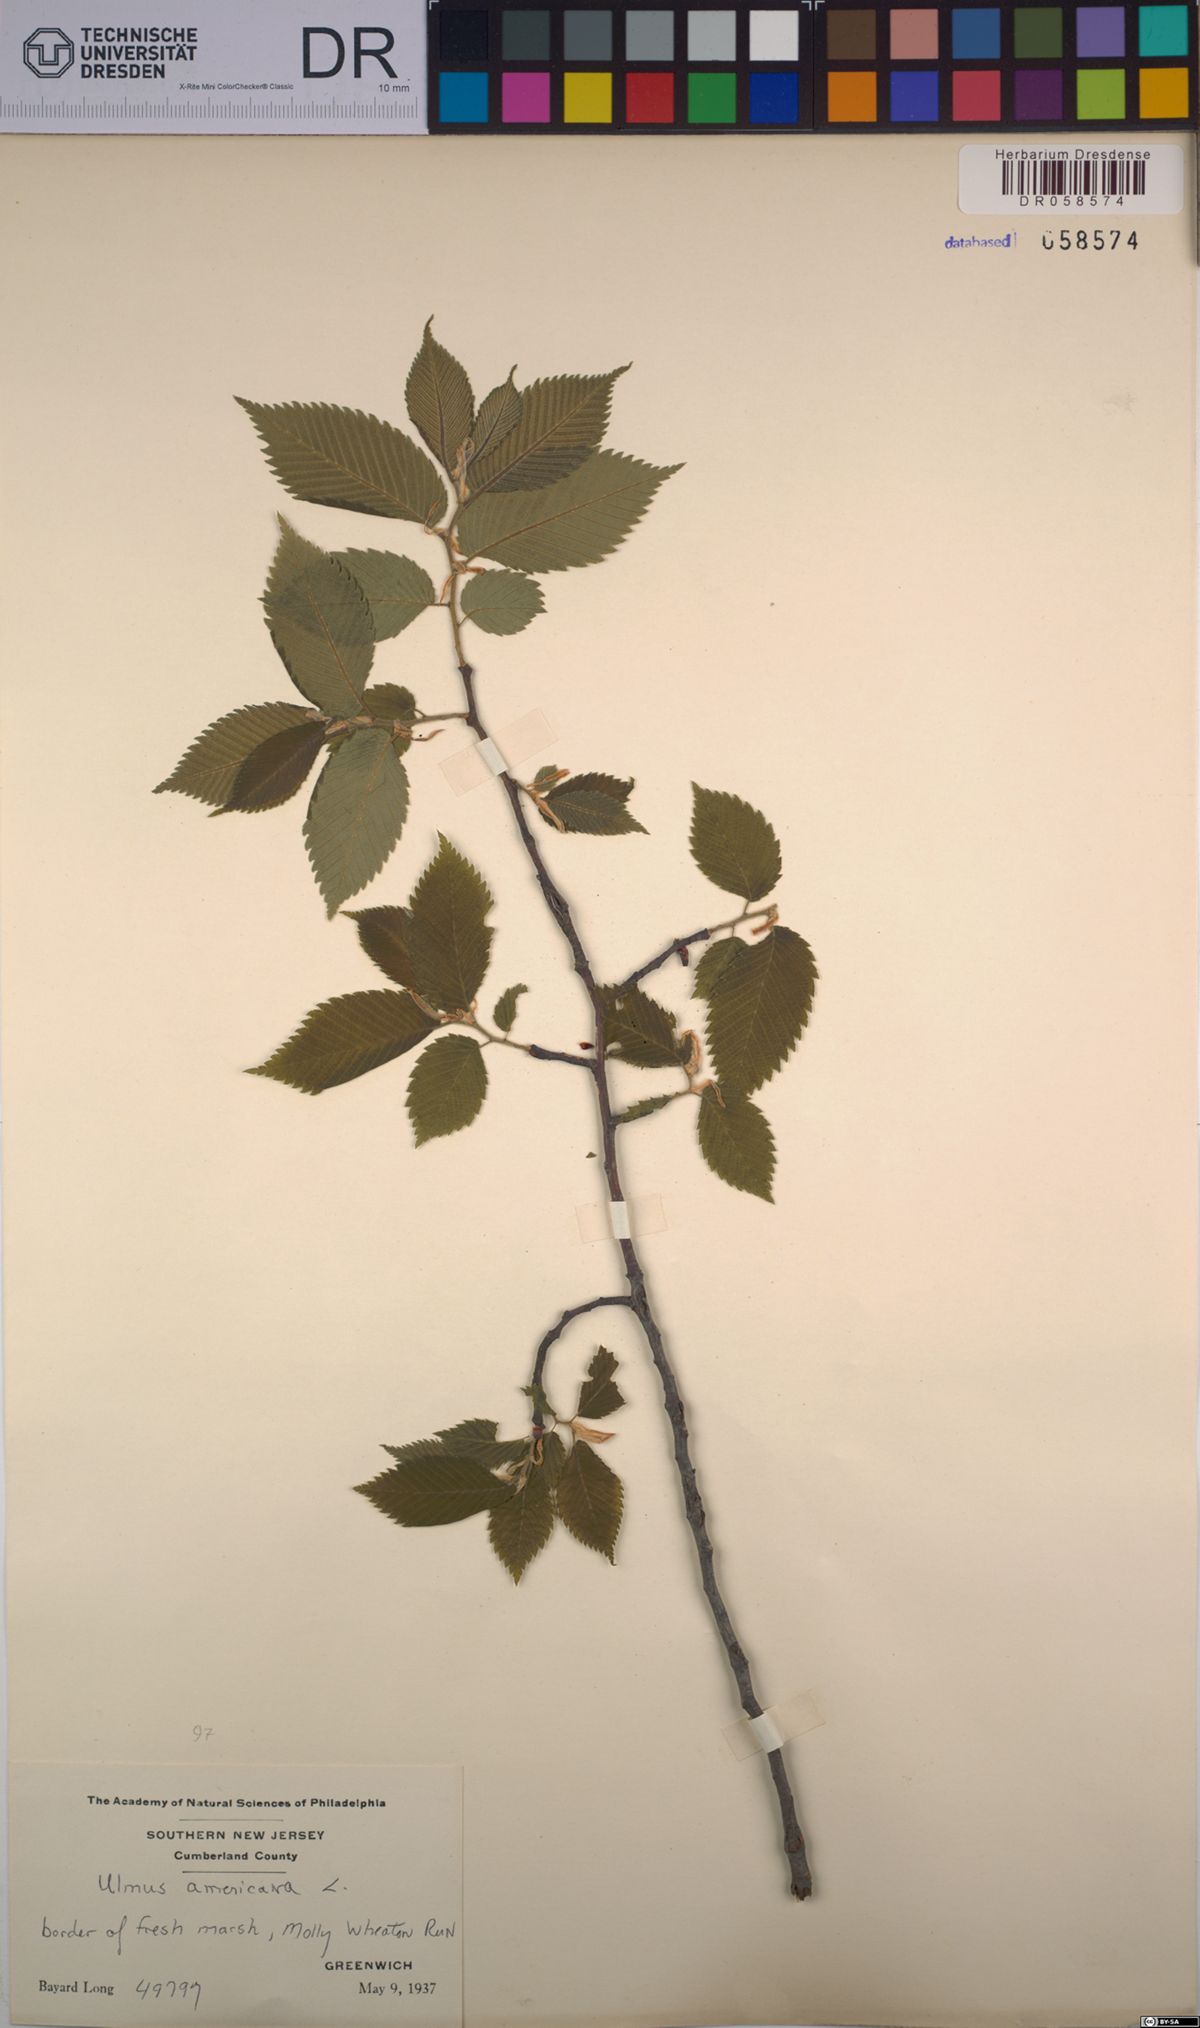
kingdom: Plantae
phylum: Tracheophyta
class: Magnoliopsida
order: Rosales
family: Ulmaceae
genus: Ulmus
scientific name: Ulmus americana
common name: American elm
